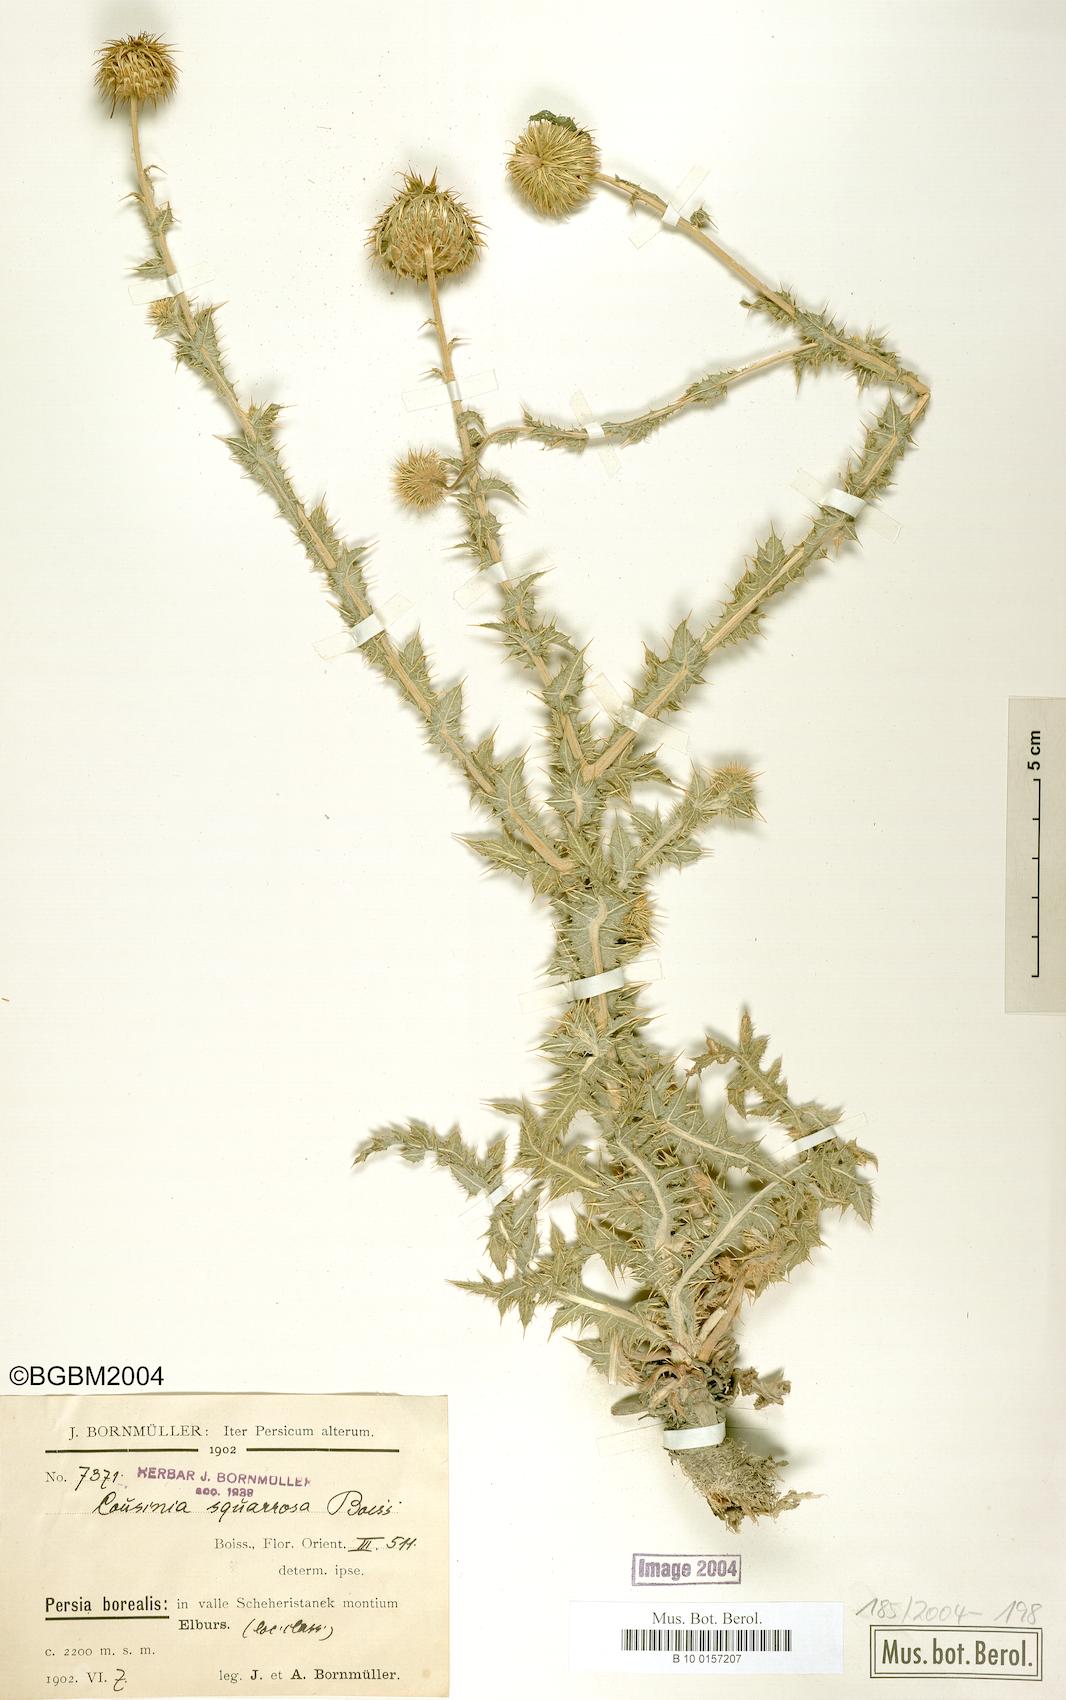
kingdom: Plantae
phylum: Tracheophyta
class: Magnoliopsida
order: Asterales
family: Asteraceae
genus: Cousinia
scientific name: Cousinia calocephala
